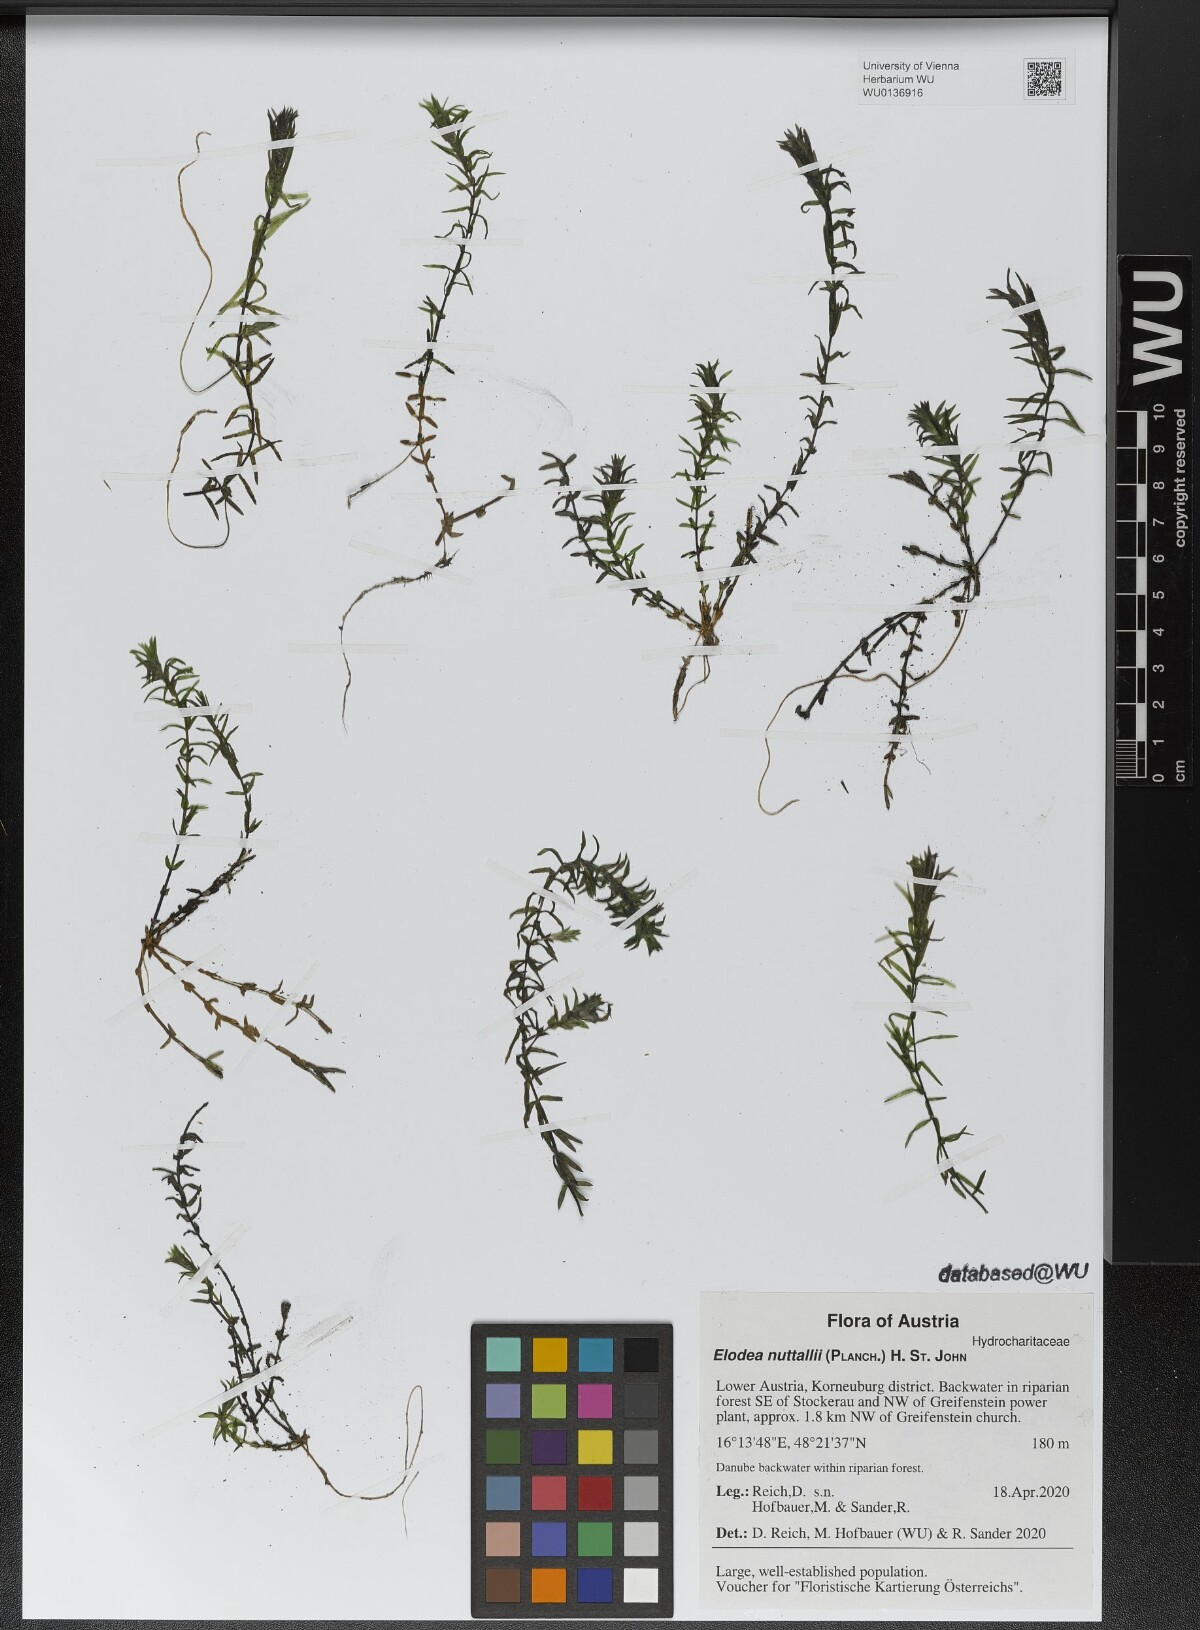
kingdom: Plantae
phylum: Tracheophyta
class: Liliopsida
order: Alismatales
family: Hydrocharitaceae
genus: Elodea
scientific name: Elodea nuttallii
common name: Nuttall's waterweed
